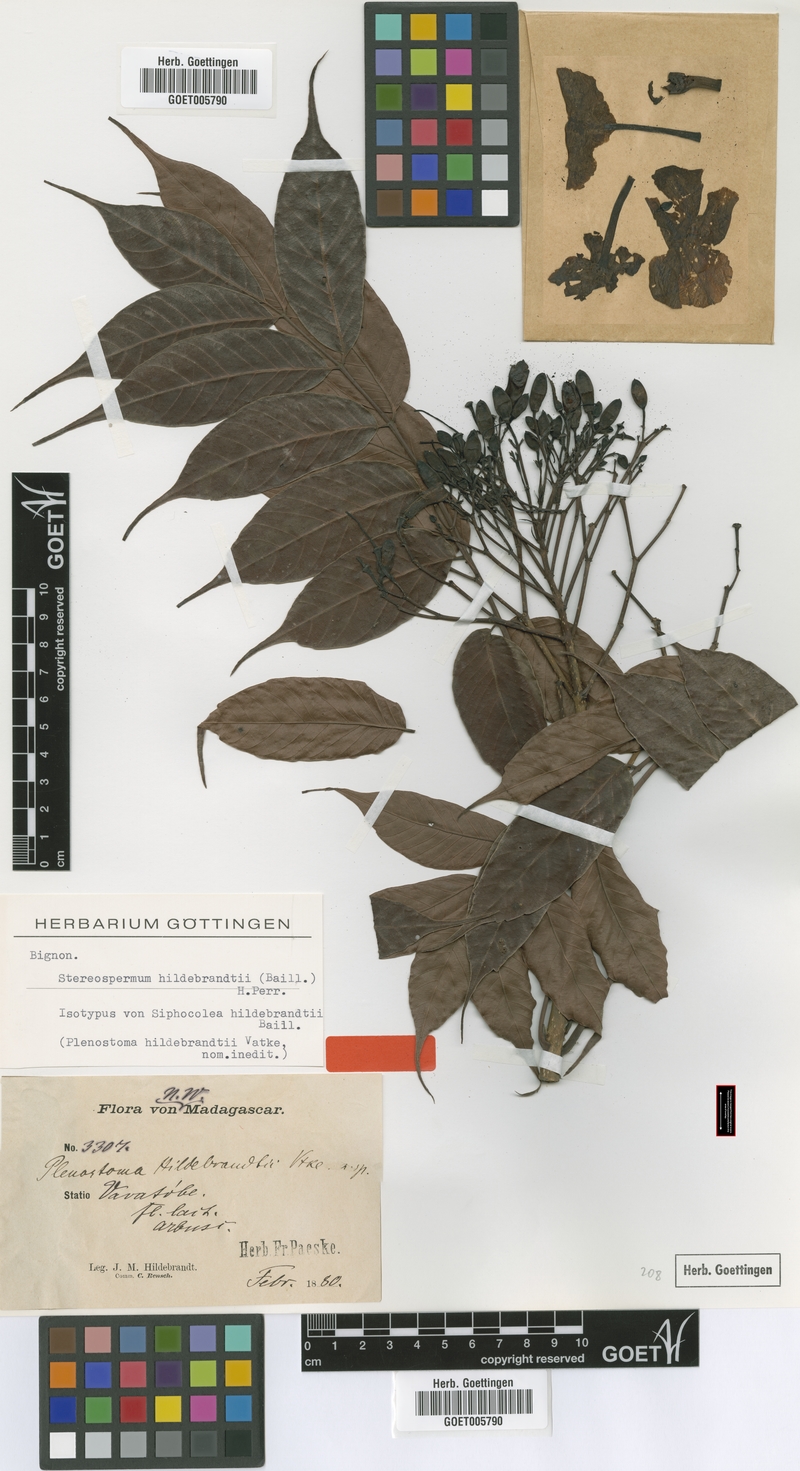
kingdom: Plantae
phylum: Tracheophyta
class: Magnoliopsida
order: Lamiales
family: Bignoniaceae
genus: Stereospermum
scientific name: Stereospermum hildebrandtii
